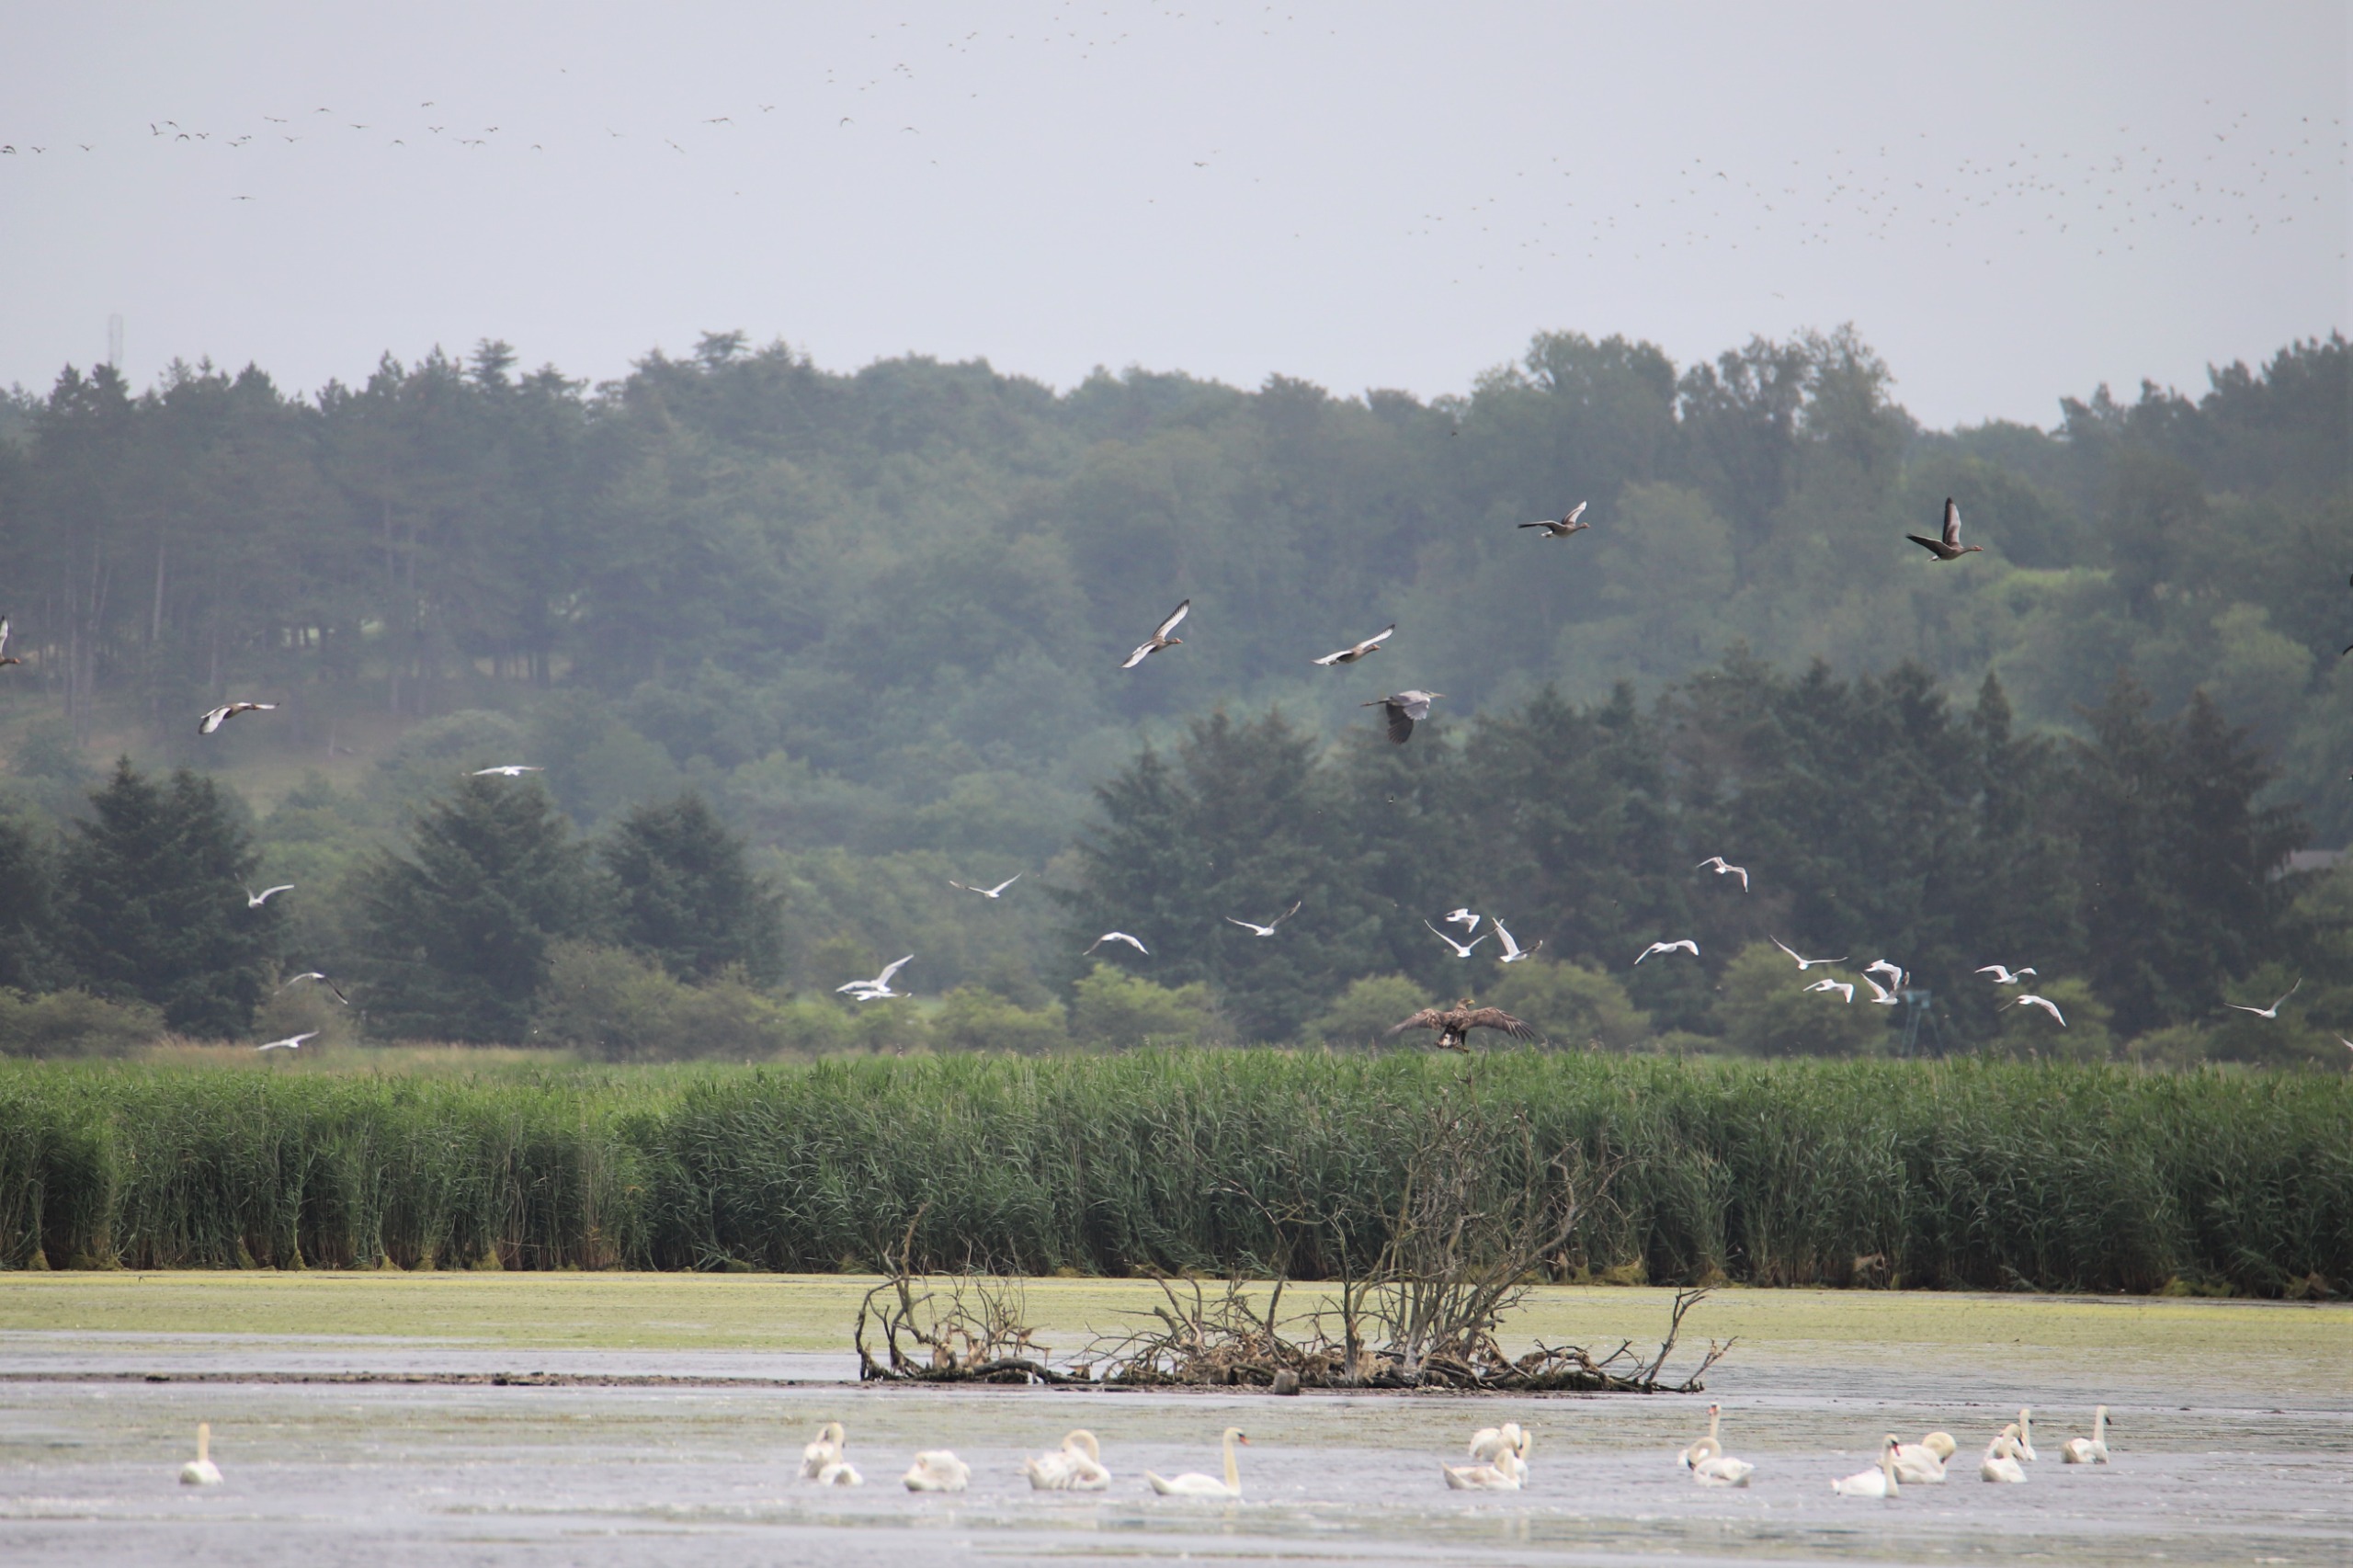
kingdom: Animalia
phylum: Chordata
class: Aves
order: Accipitriformes
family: Accipitridae
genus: Haliaeetus
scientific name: Haliaeetus albicilla
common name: Havørn
